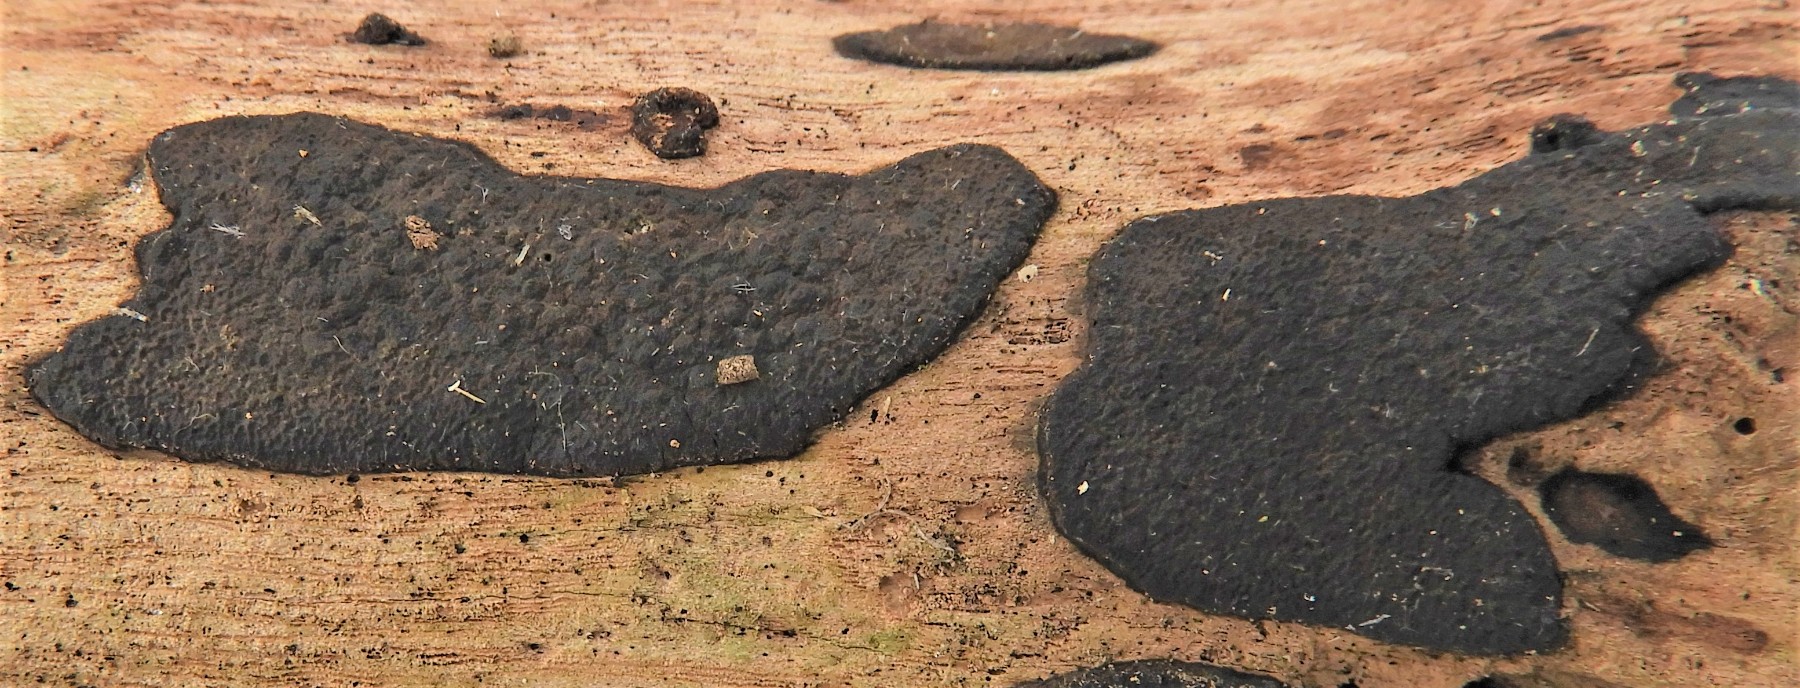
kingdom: Fungi
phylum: Ascomycota
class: Sordariomycetes
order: Xylariales
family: Hypoxylaceae
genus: Hypoxylon
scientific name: Hypoxylon petriniae
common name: nedsænket kulbær
